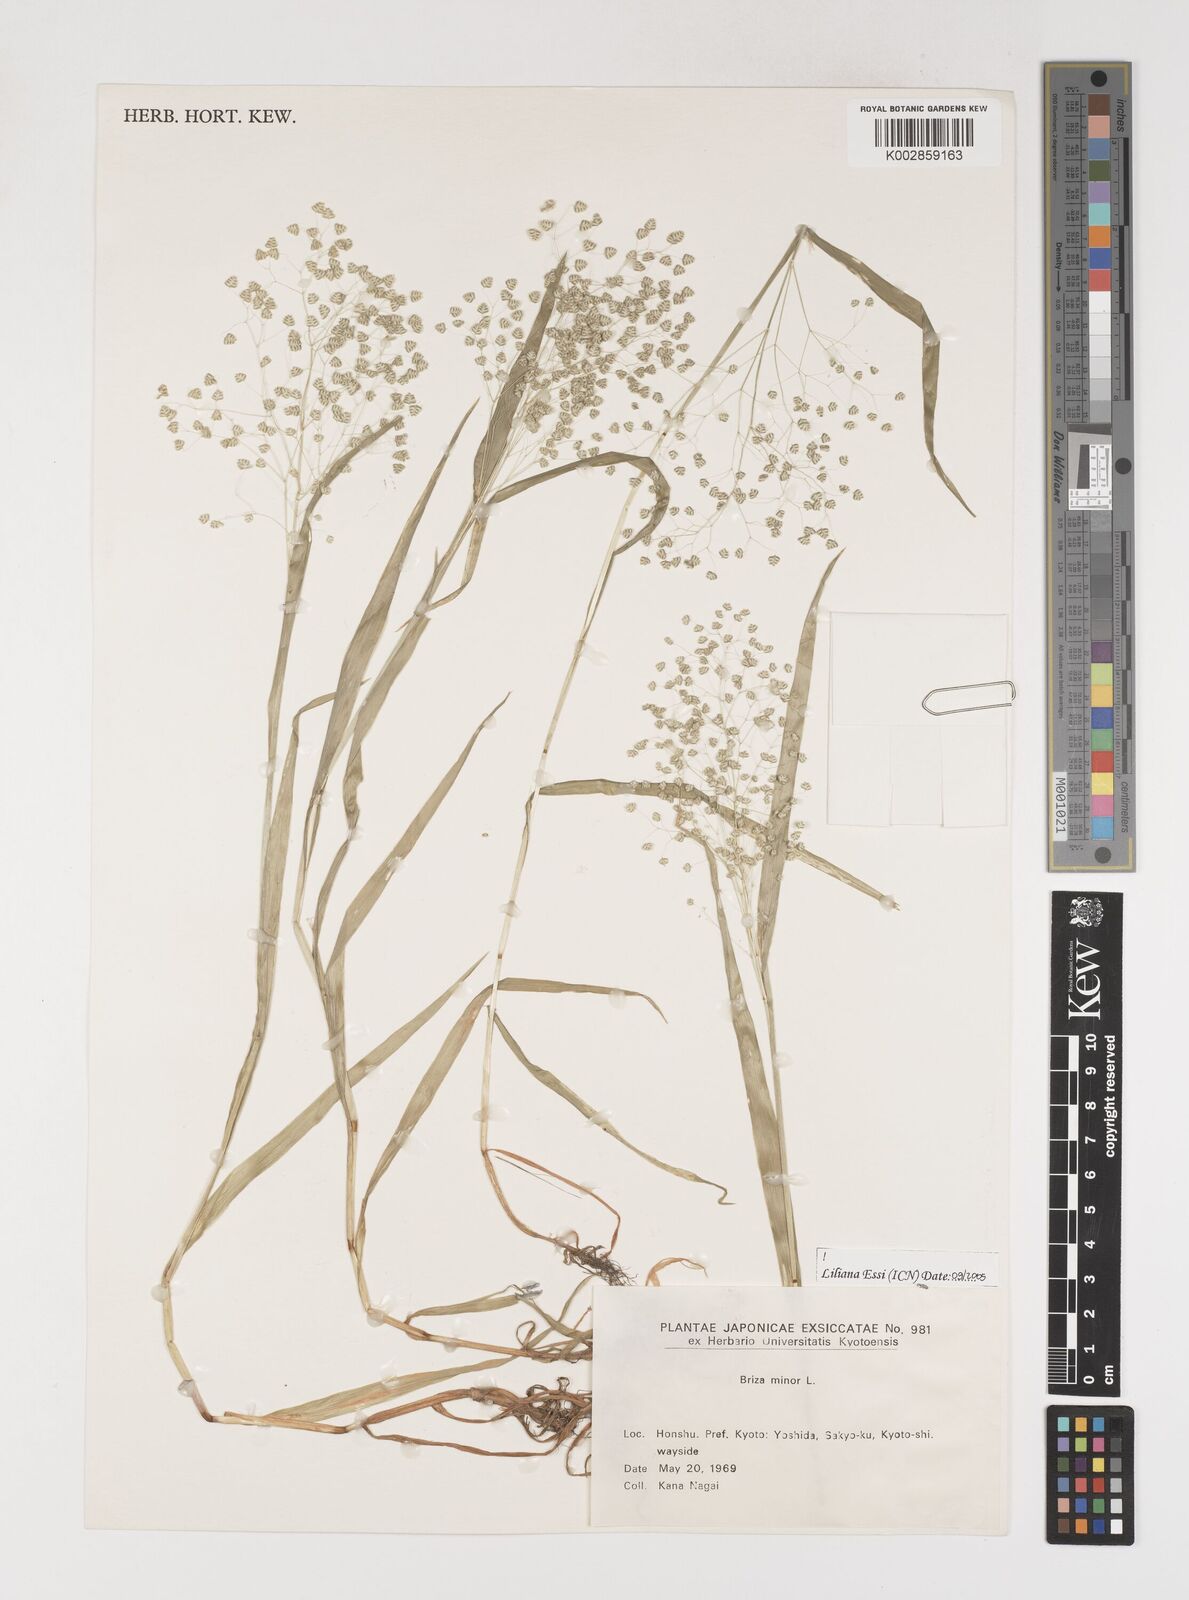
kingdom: Plantae
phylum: Tracheophyta
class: Liliopsida
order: Poales
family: Poaceae
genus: Briza
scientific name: Briza minor
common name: Lesser quaking-grass
